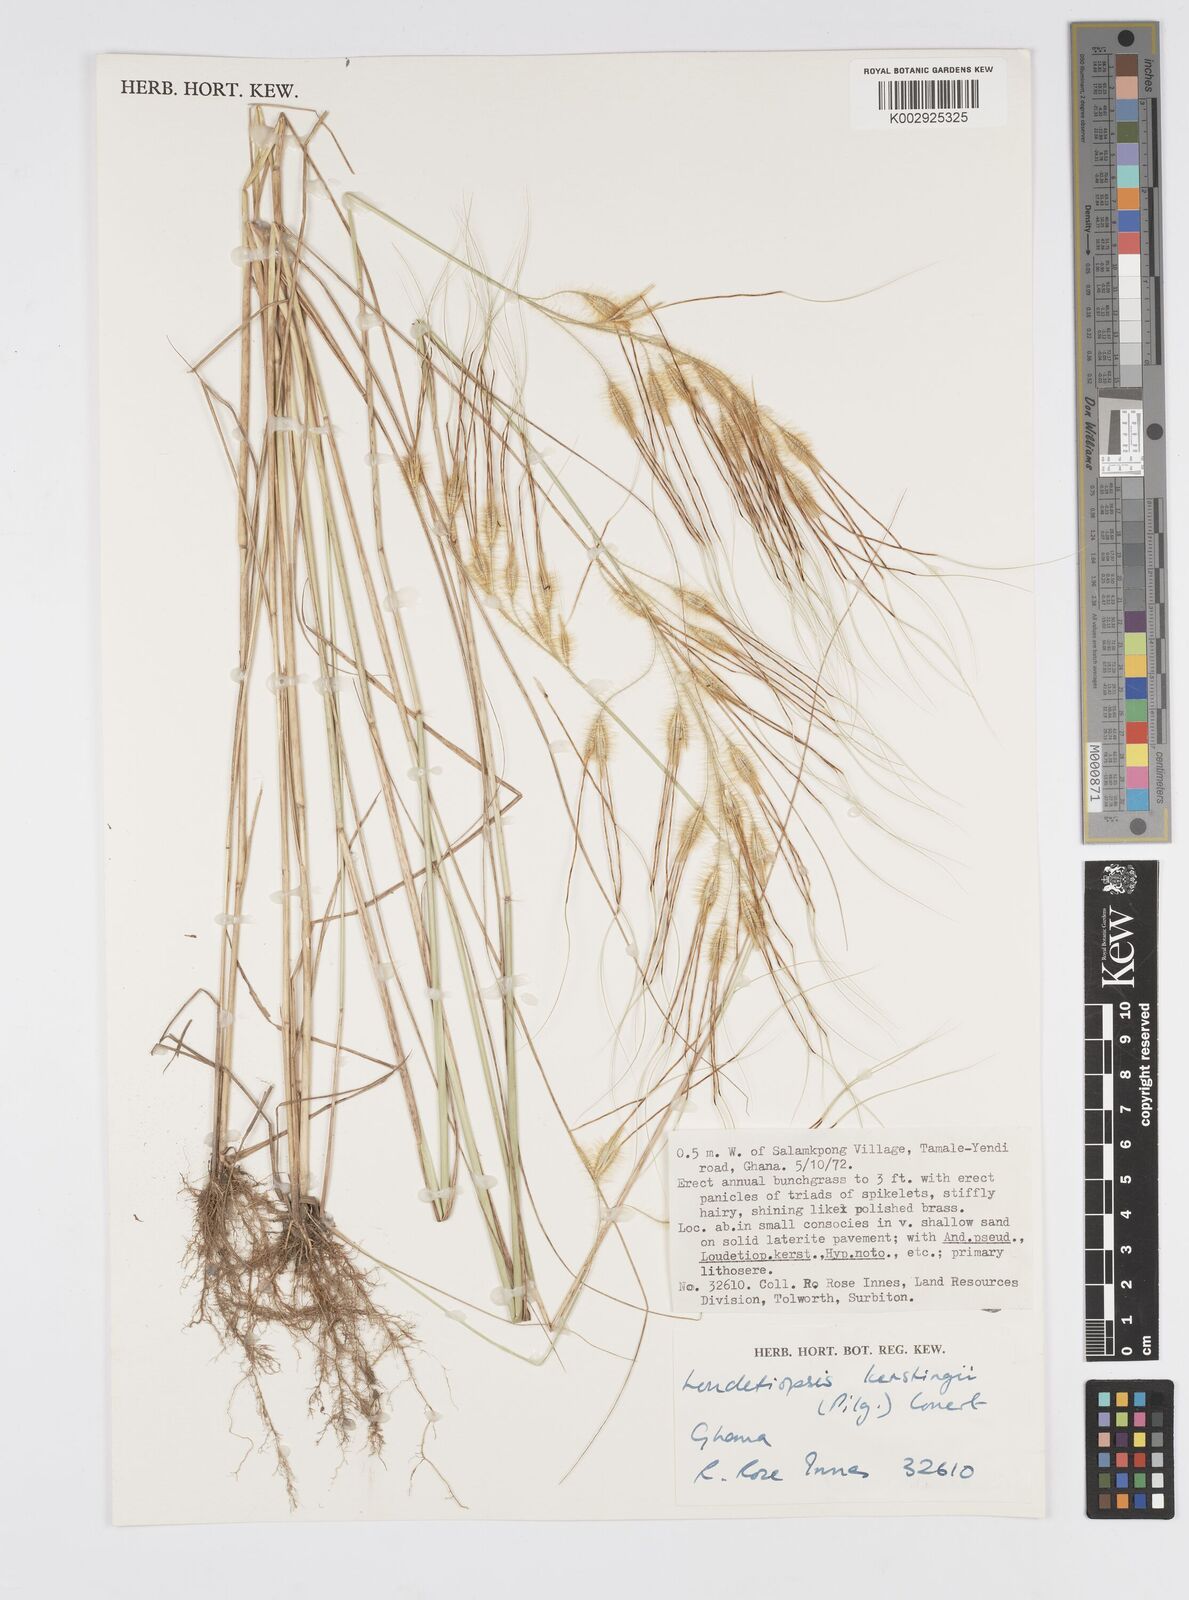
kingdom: Plantae
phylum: Tracheophyta
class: Liliopsida
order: Poales
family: Poaceae
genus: Loudetiopsis
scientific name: Loudetiopsis kerstingii
